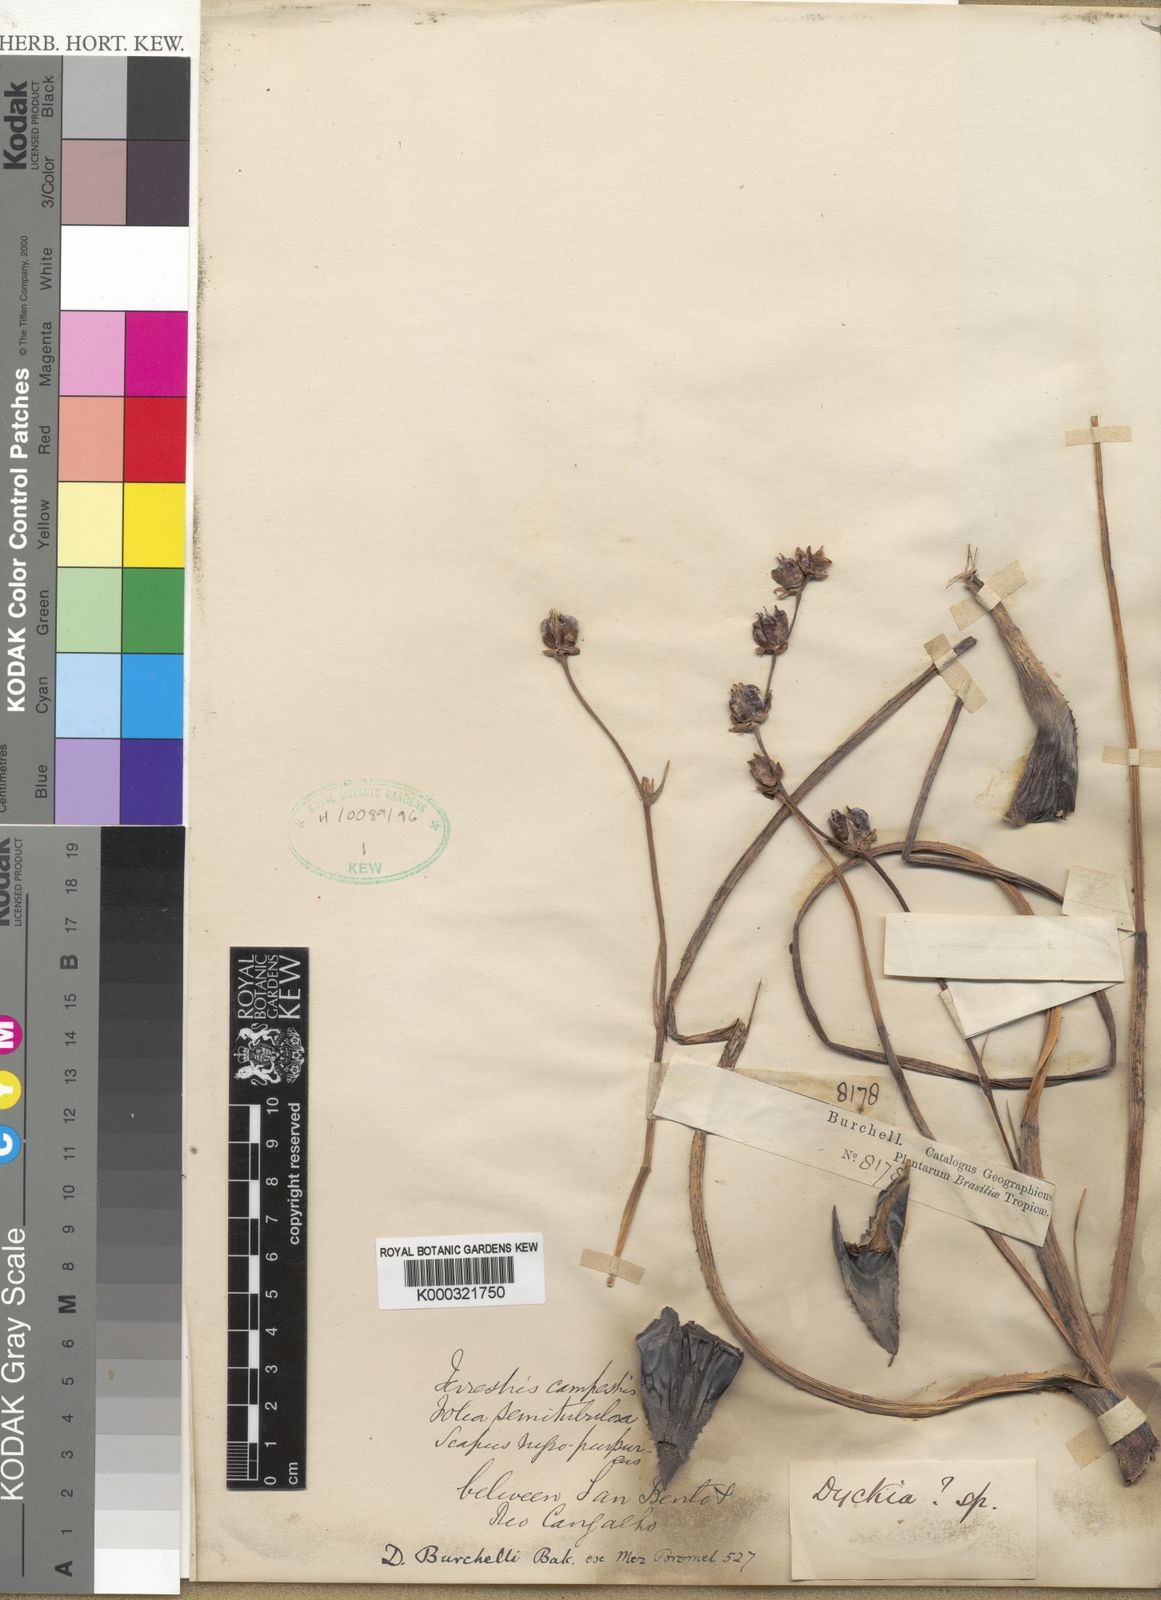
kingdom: Plantae
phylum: Tracheophyta
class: Liliopsida
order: Poales
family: Bromeliaceae
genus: Dyckia
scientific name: Dyckia burchellii
